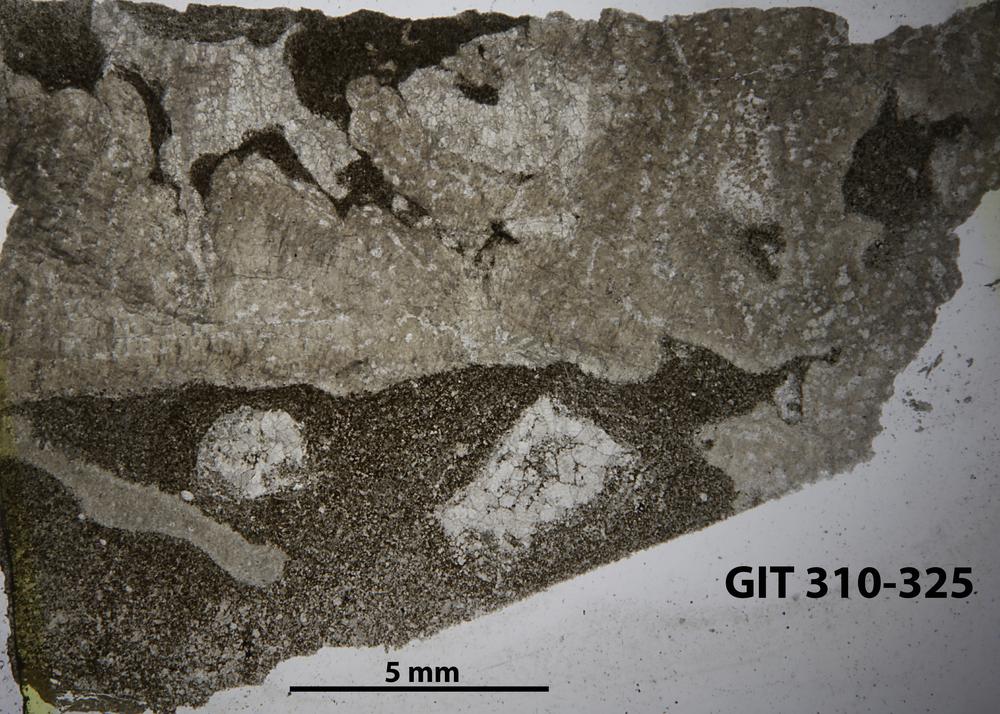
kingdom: Animalia
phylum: Porifera
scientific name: Porifera
